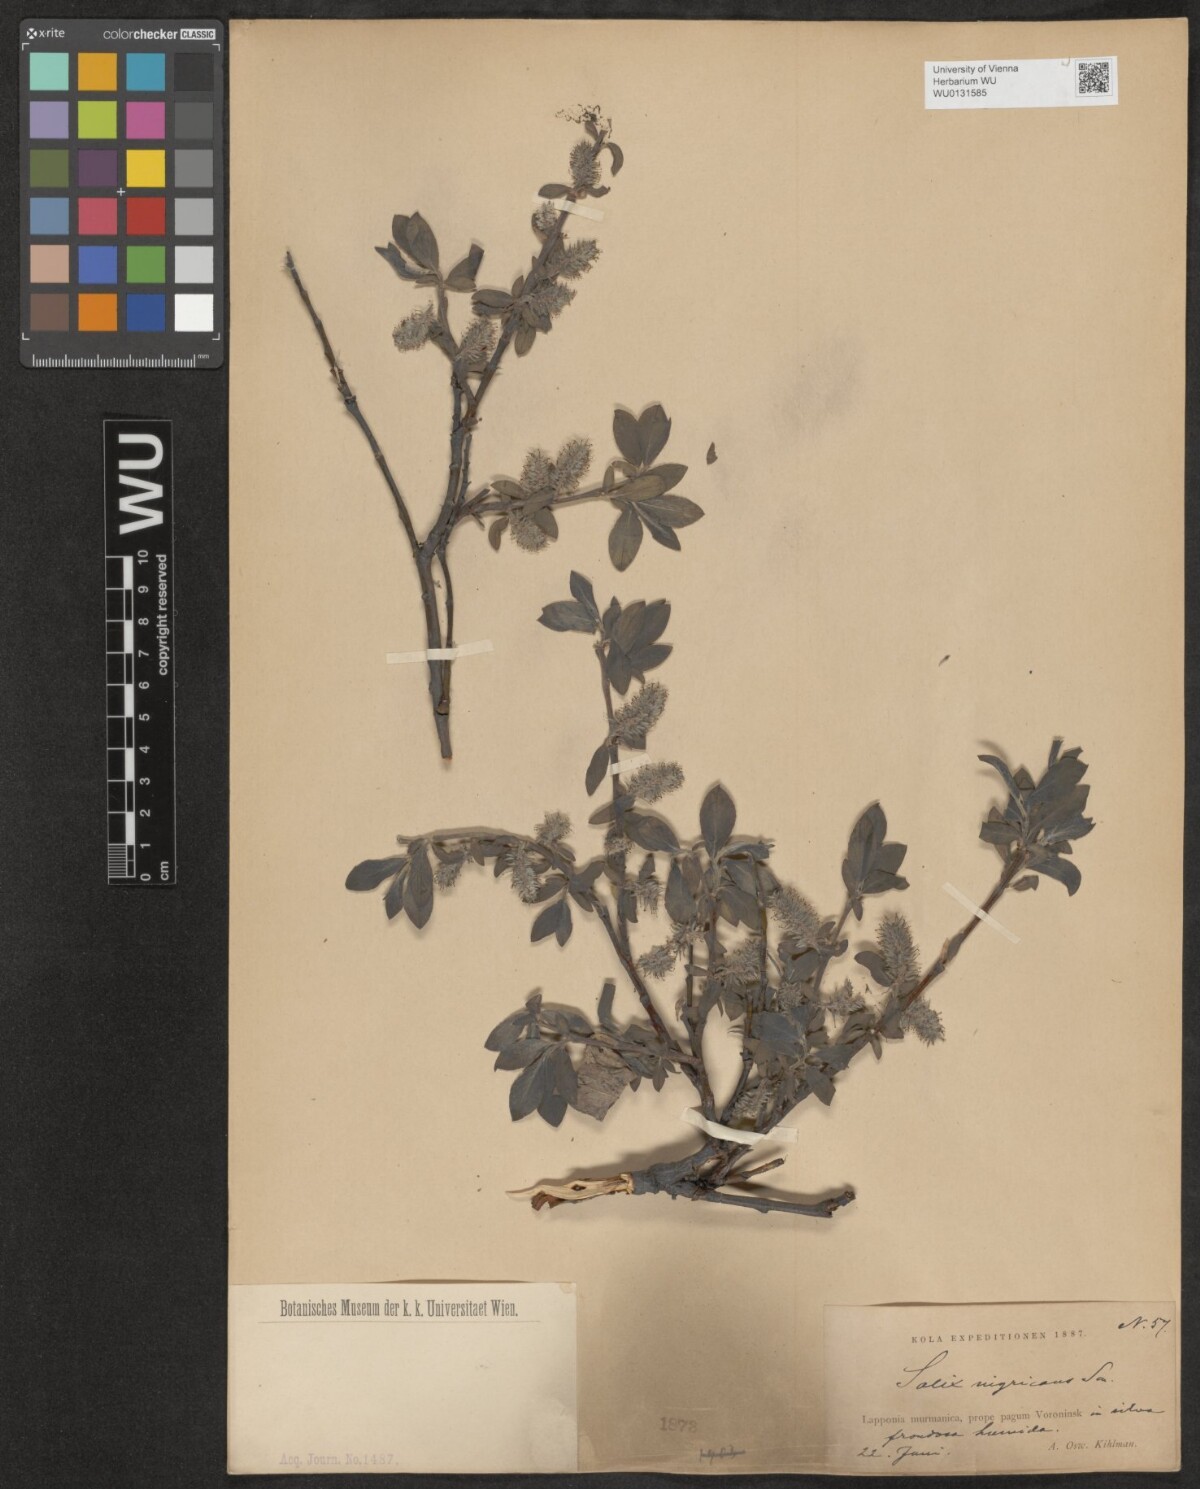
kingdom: Plantae
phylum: Tracheophyta
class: Magnoliopsida
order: Malpighiales
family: Salicaceae
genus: Salix
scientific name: Salix myrsinifolia
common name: Dark-leaved willow
